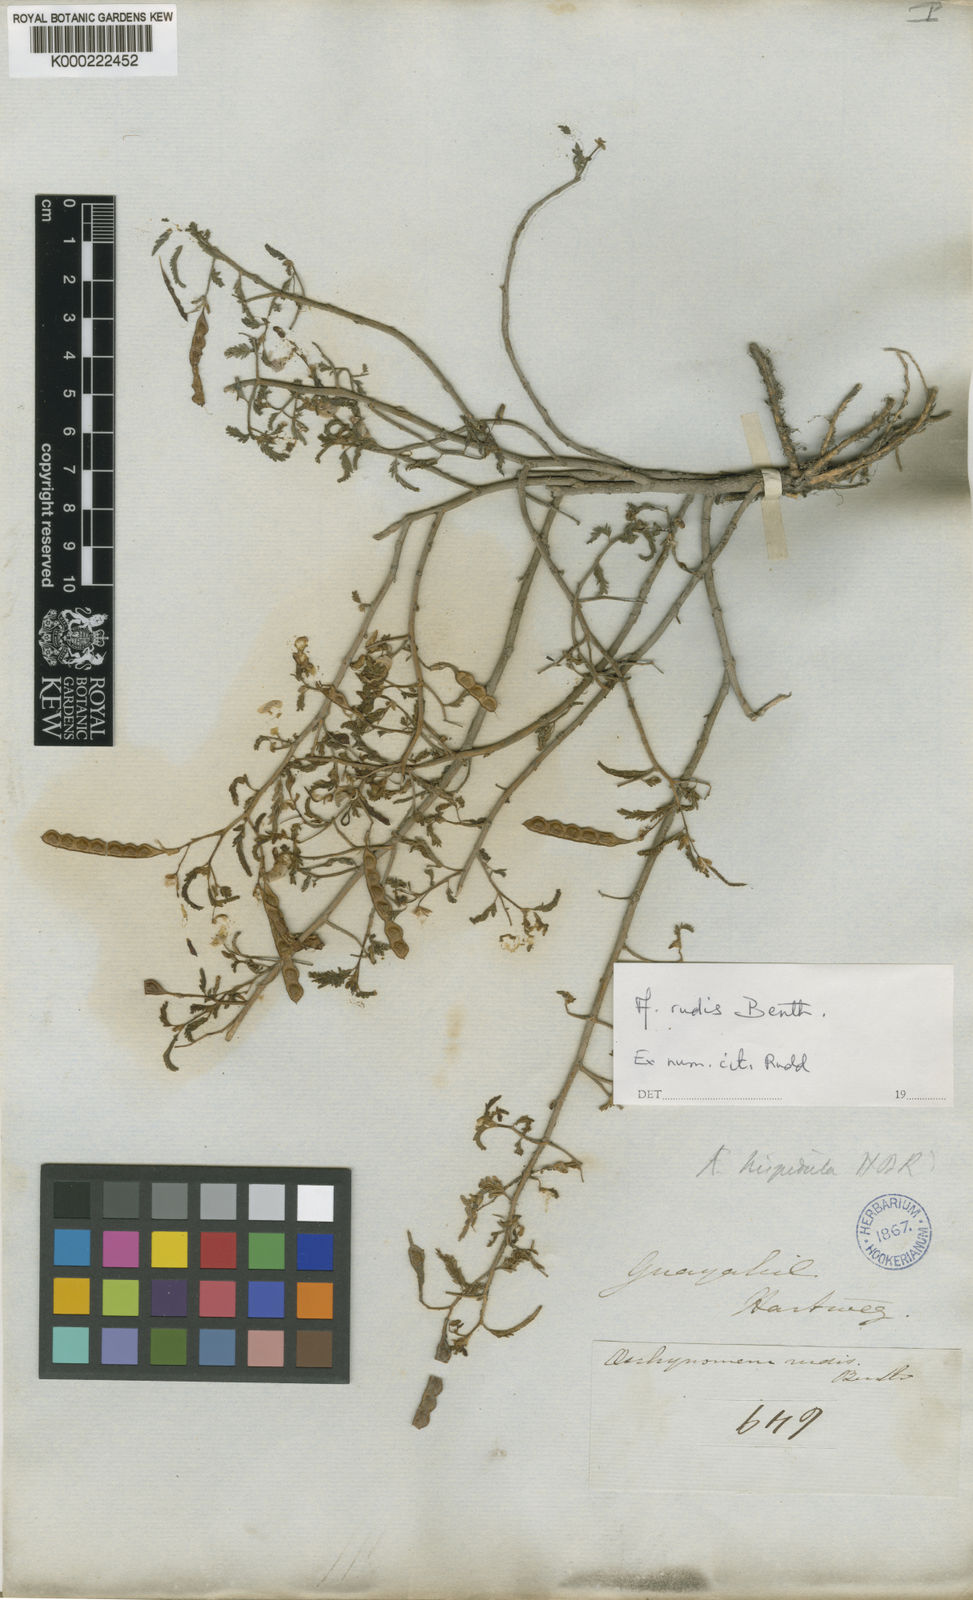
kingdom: Plantae
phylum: Tracheophyta
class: Magnoliopsida
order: Fabales
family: Fabaceae
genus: Aeschynomene
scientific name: Aeschynomene rudis
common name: Rough joint-vetch
